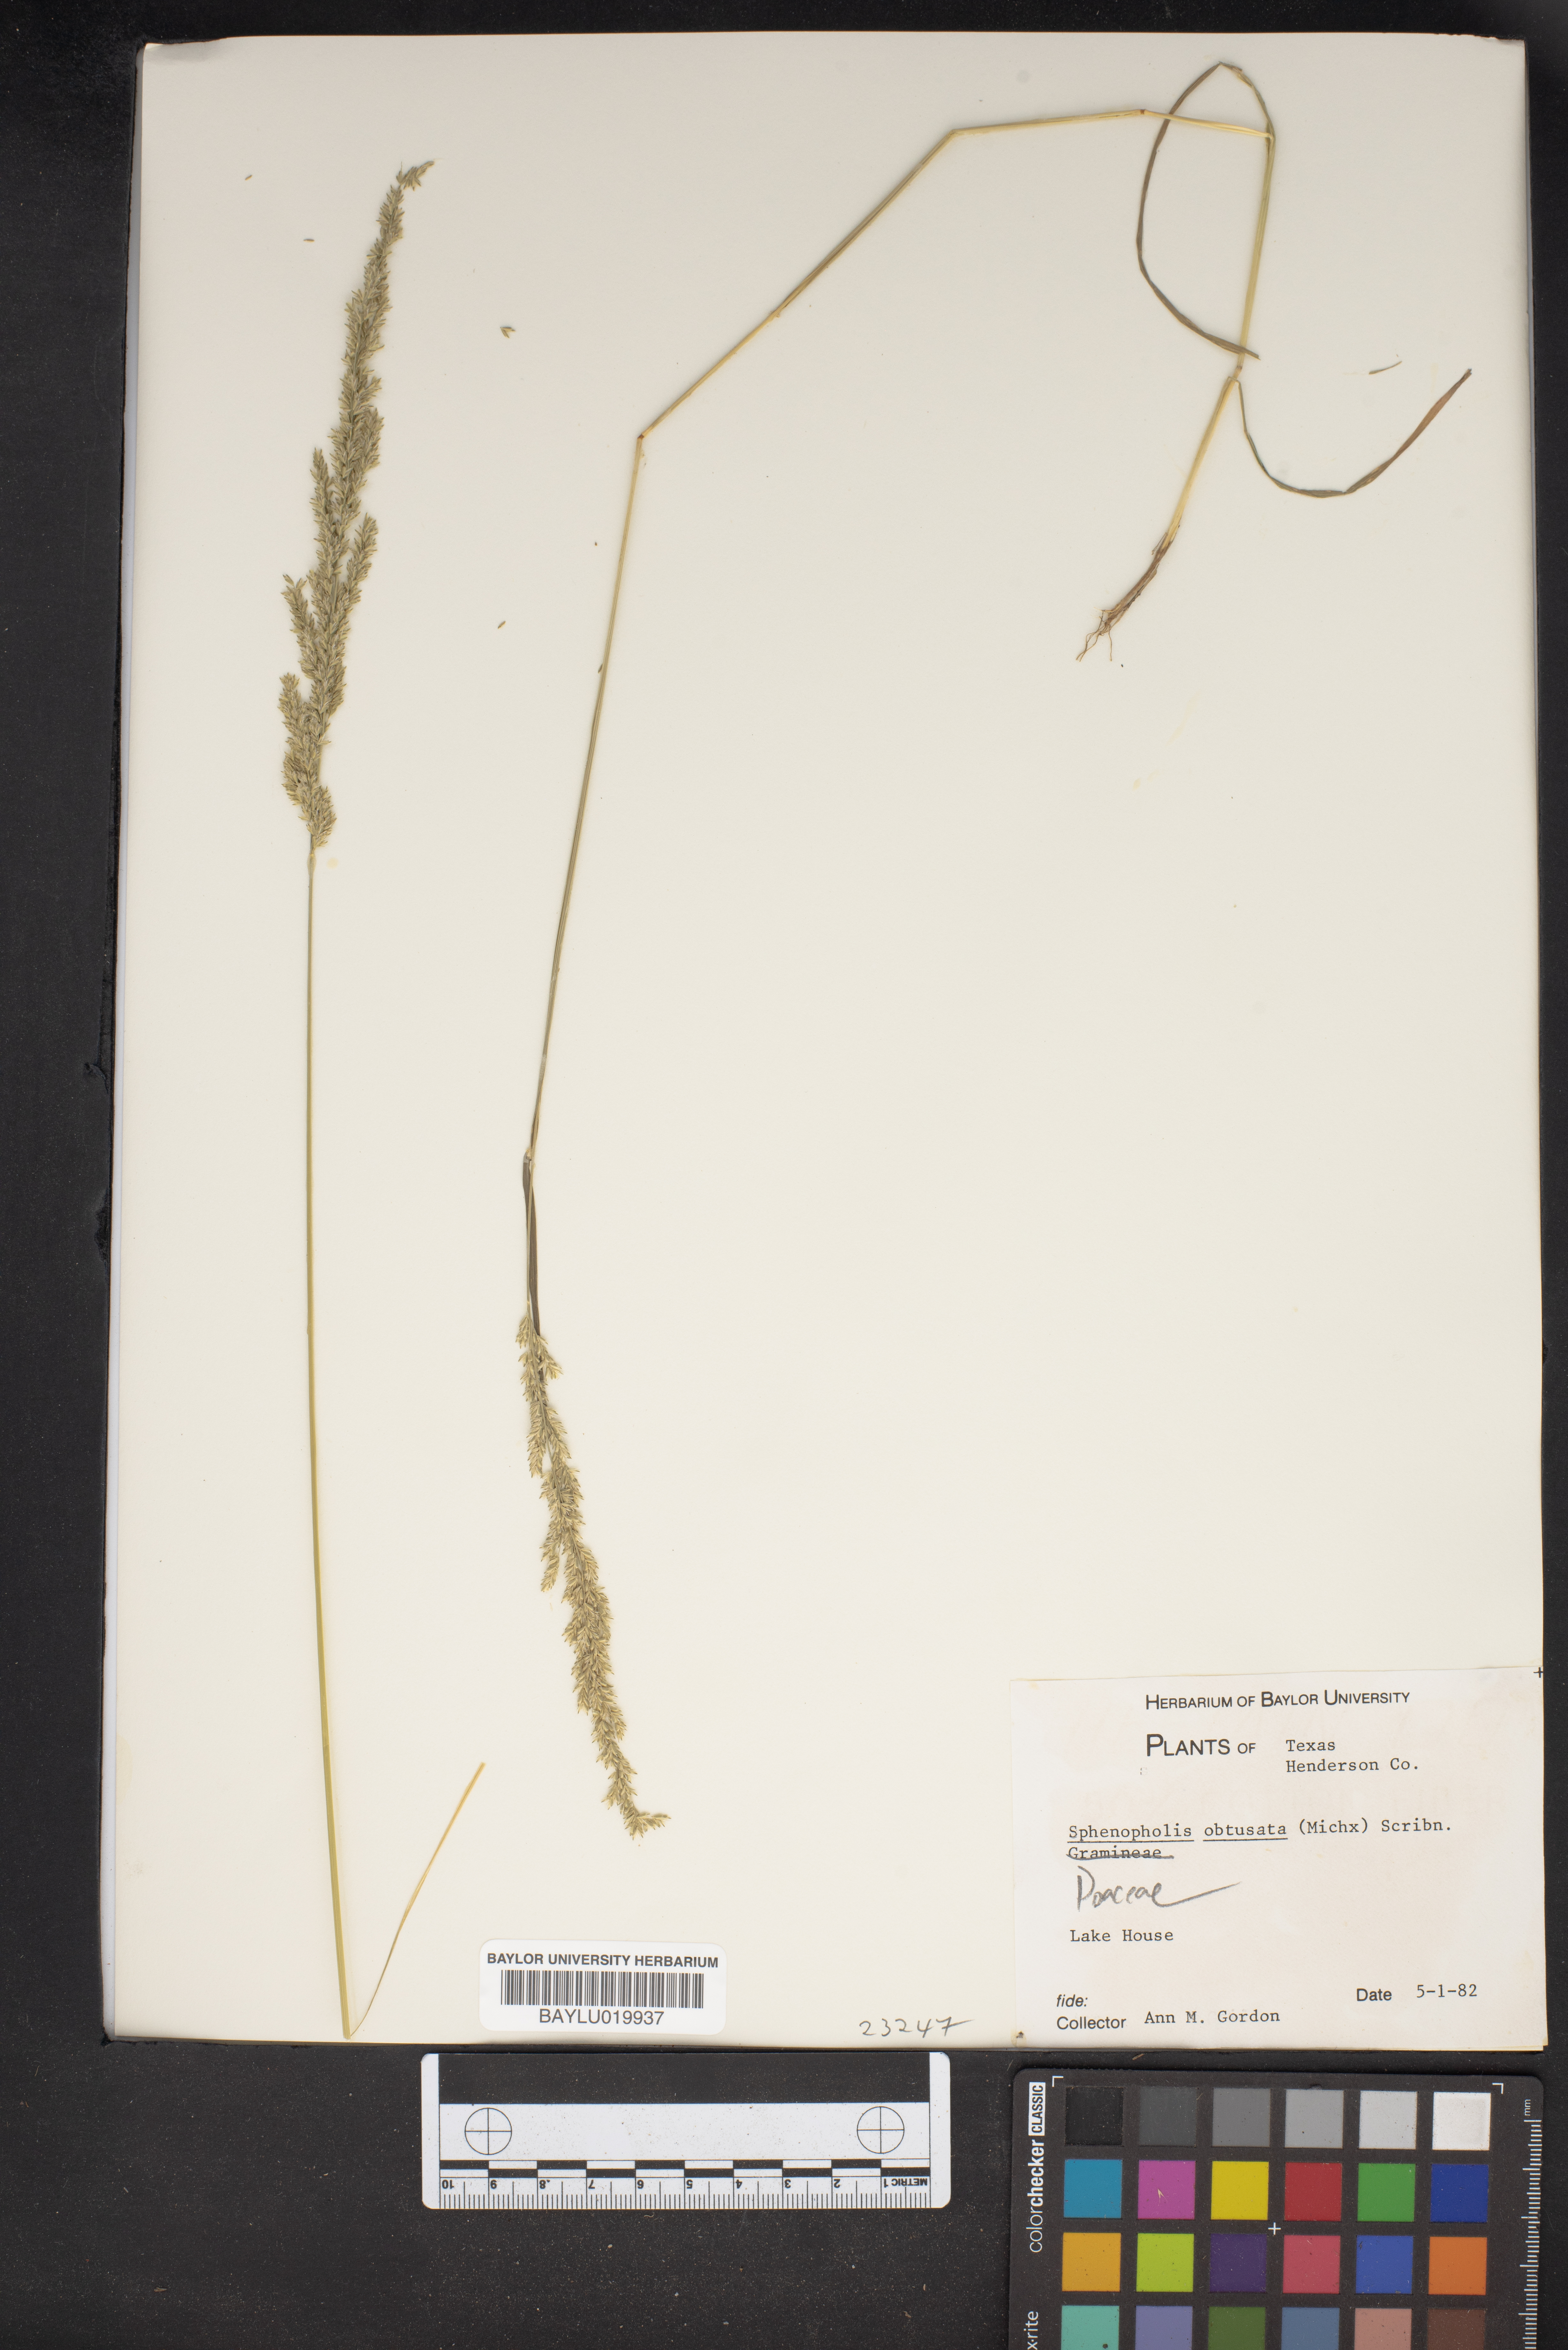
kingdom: Plantae
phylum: Tracheophyta
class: Liliopsida
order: Poales
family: Poaceae
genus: Sphenopholis
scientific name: Sphenopholis obtusata
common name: Prairie grass
